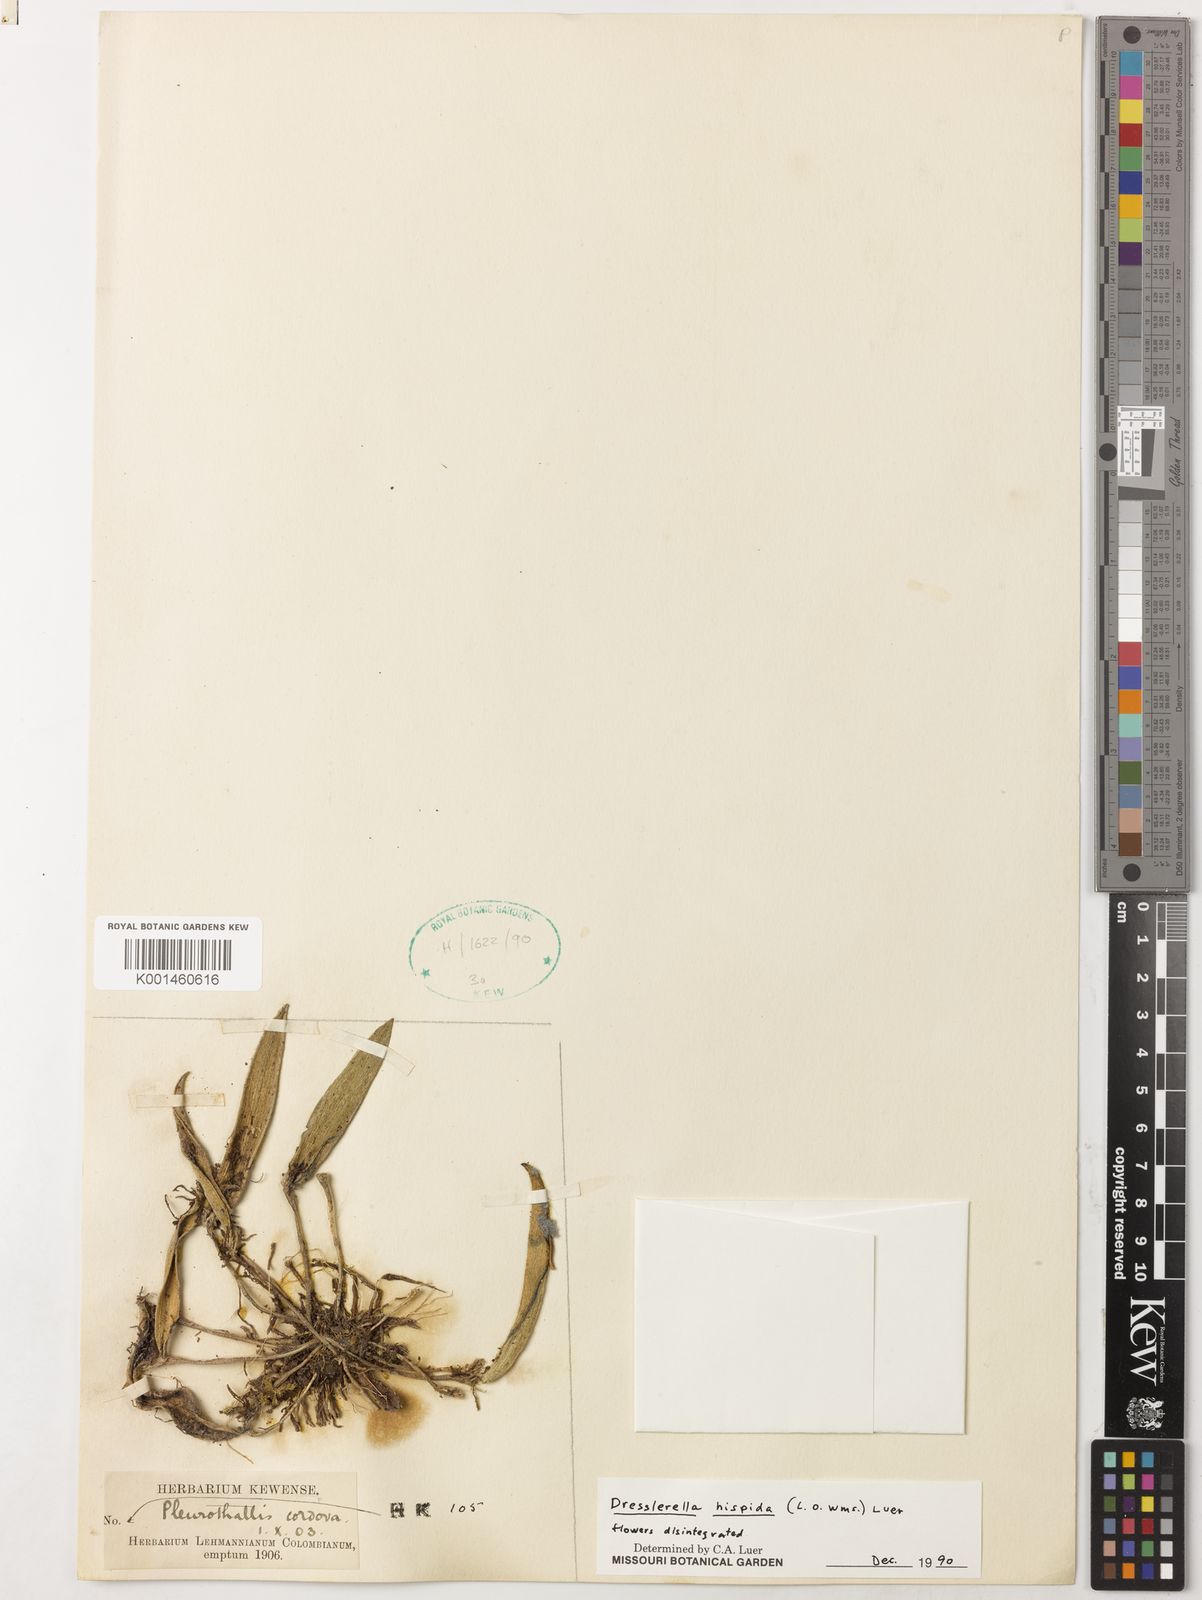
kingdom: Plantae
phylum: Tracheophyta
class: Liliopsida
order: Asparagales
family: Orchidaceae
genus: Dresslerella
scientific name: Dresslerella hispida
